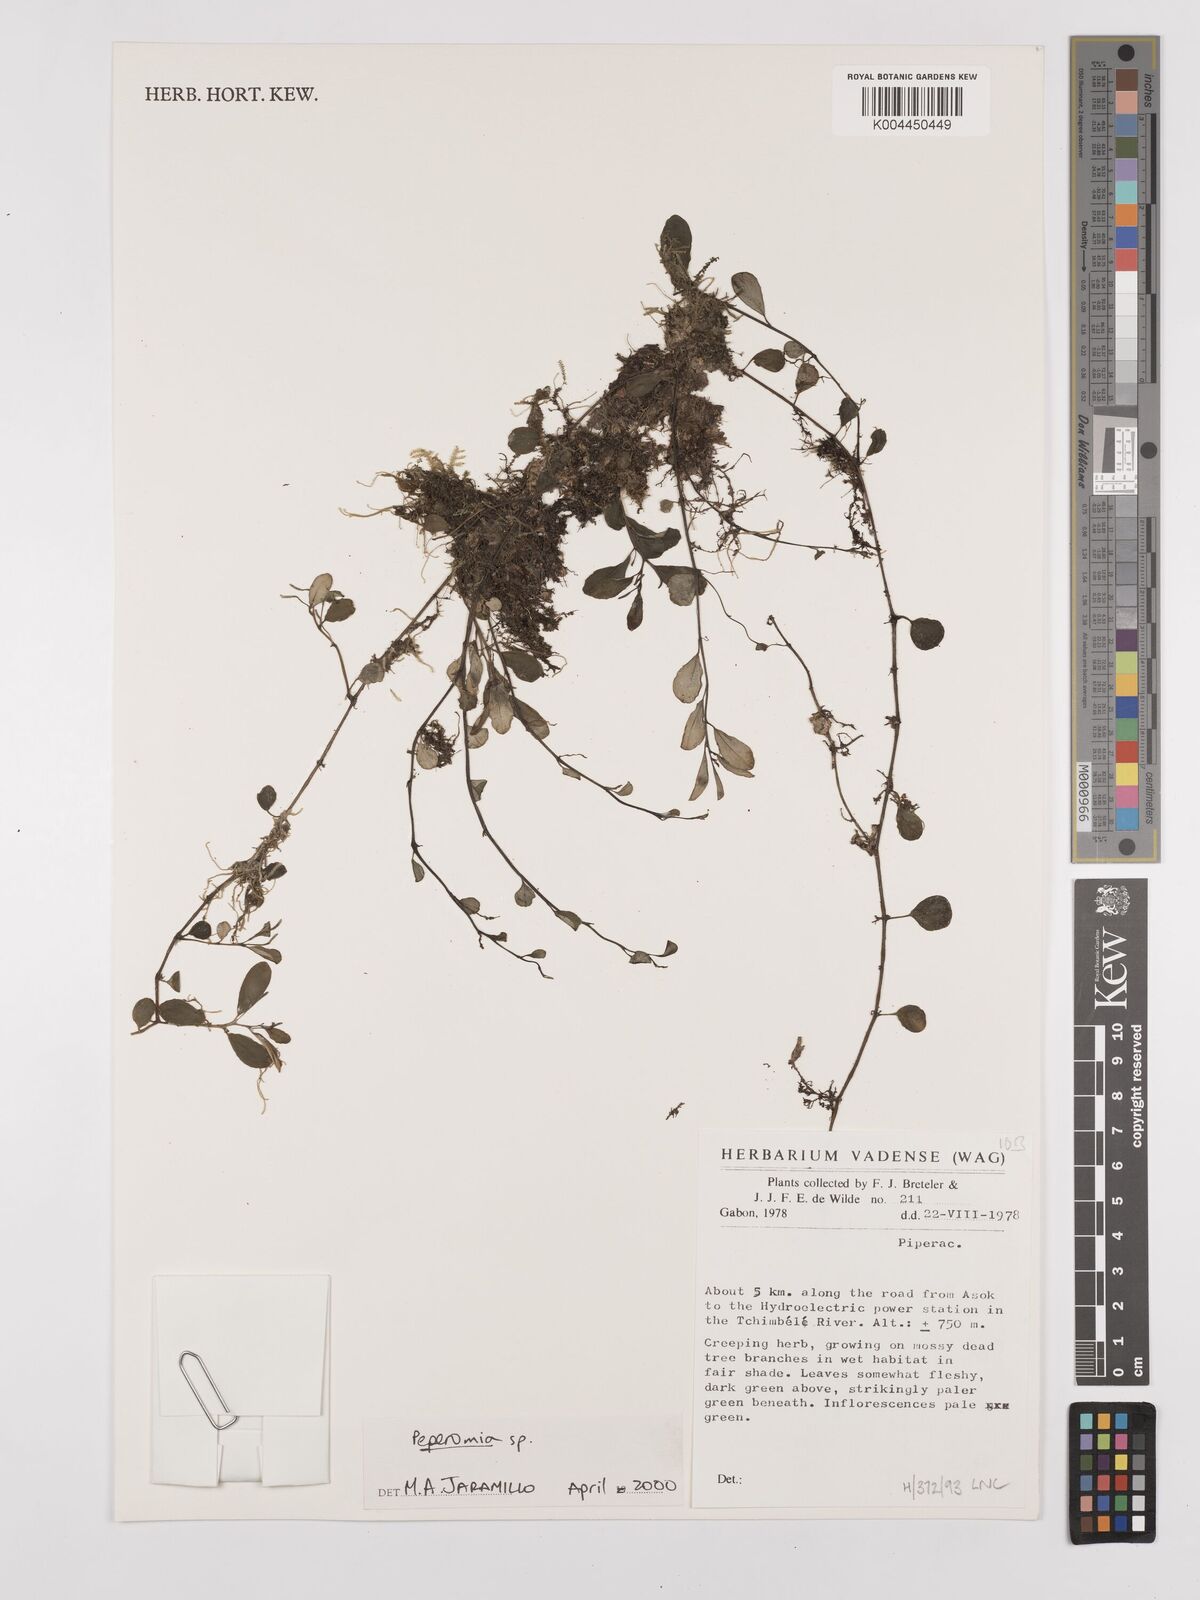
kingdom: Plantae
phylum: Tracheophyta
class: Magnoliopsida
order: Piperales
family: Piperaceae
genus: Peperomia
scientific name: Peperomia
